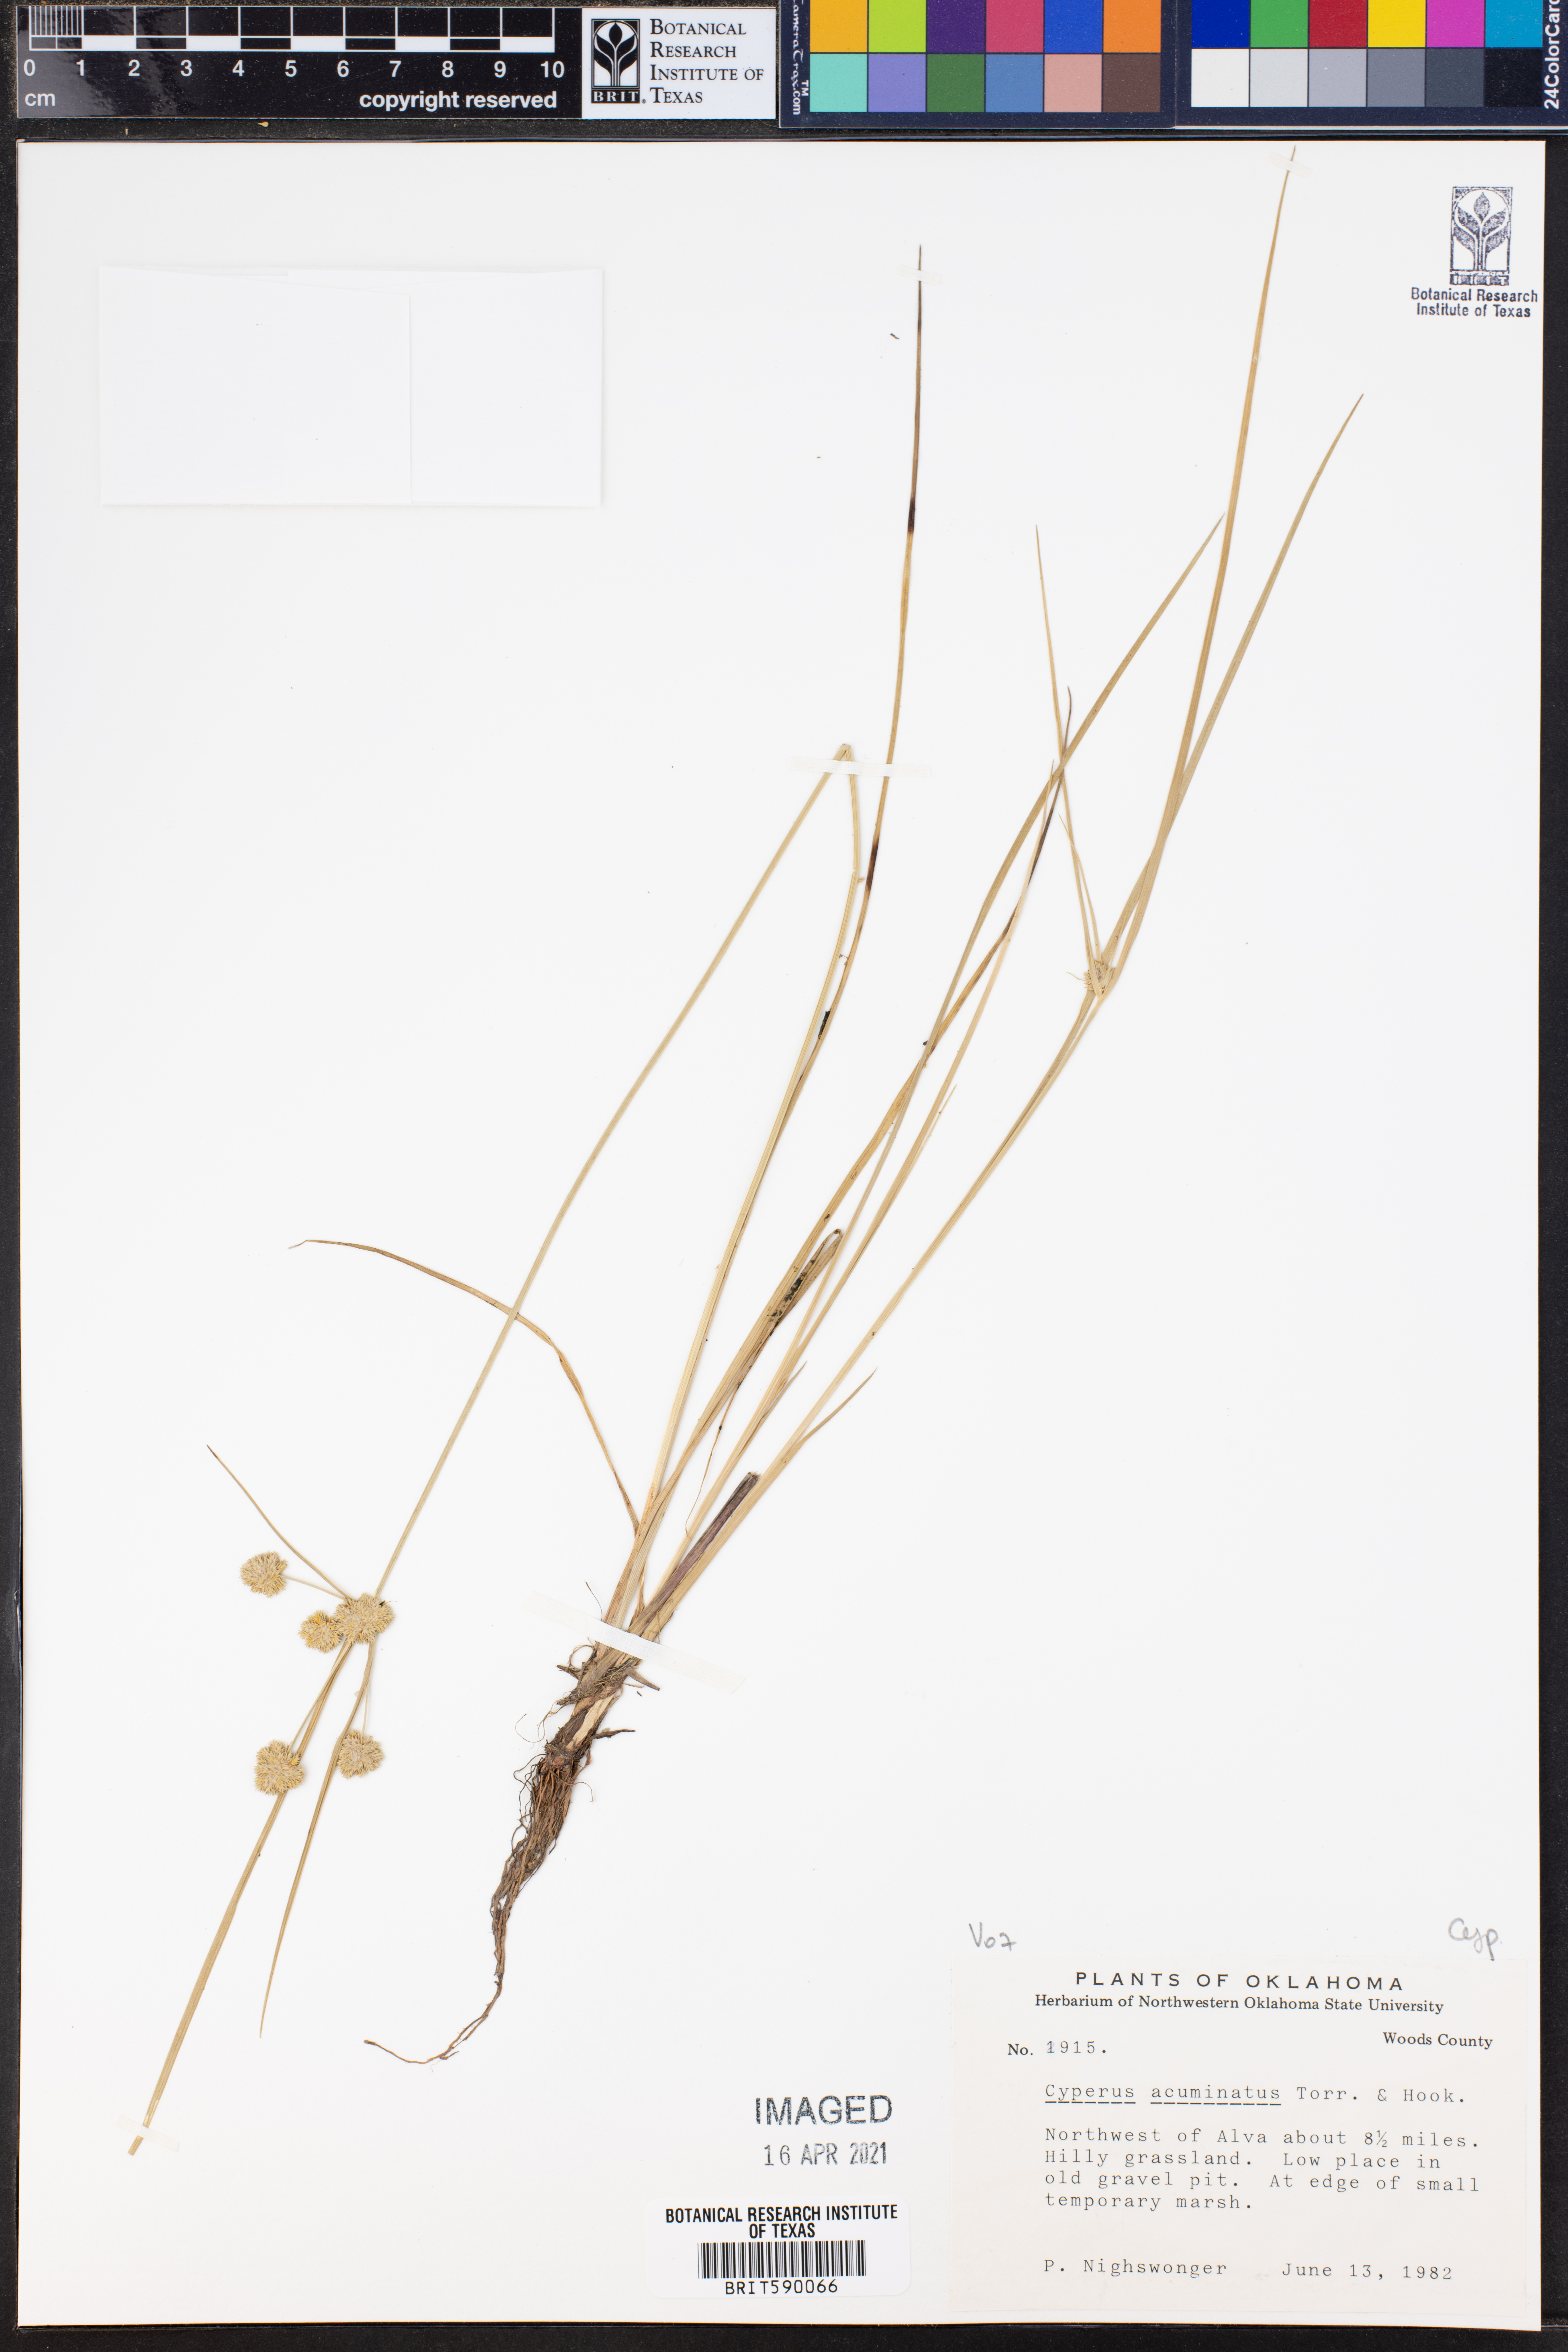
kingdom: Plantae
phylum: Tracheophyta
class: Liliopsida
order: Poales
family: Cyperaceae
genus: Cyperus
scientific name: Cyperus acuminatus
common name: Short-pointed cyperus
